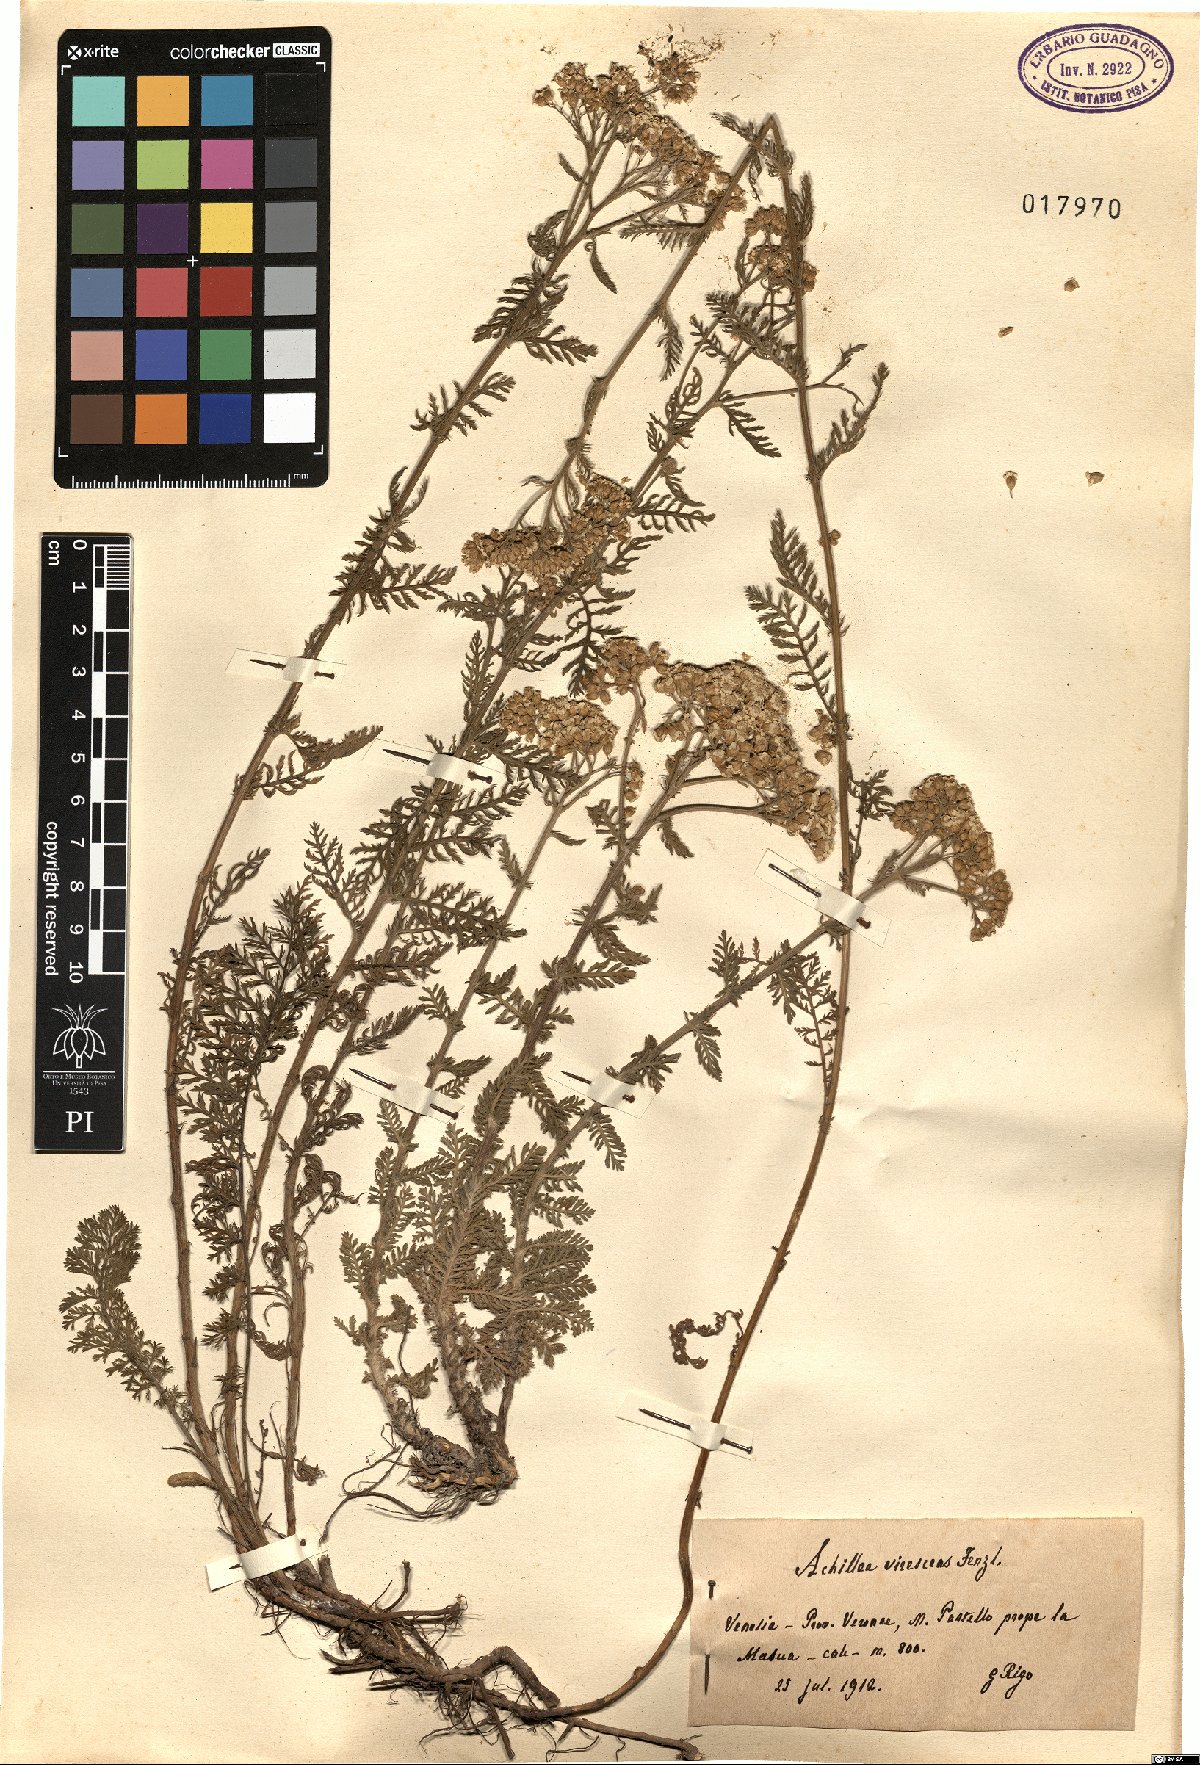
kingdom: Plantae
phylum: Tracheophyta
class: Magnoliopsida
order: Asterales
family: Asteraceae
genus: Achillea
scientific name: Achillea virescens
